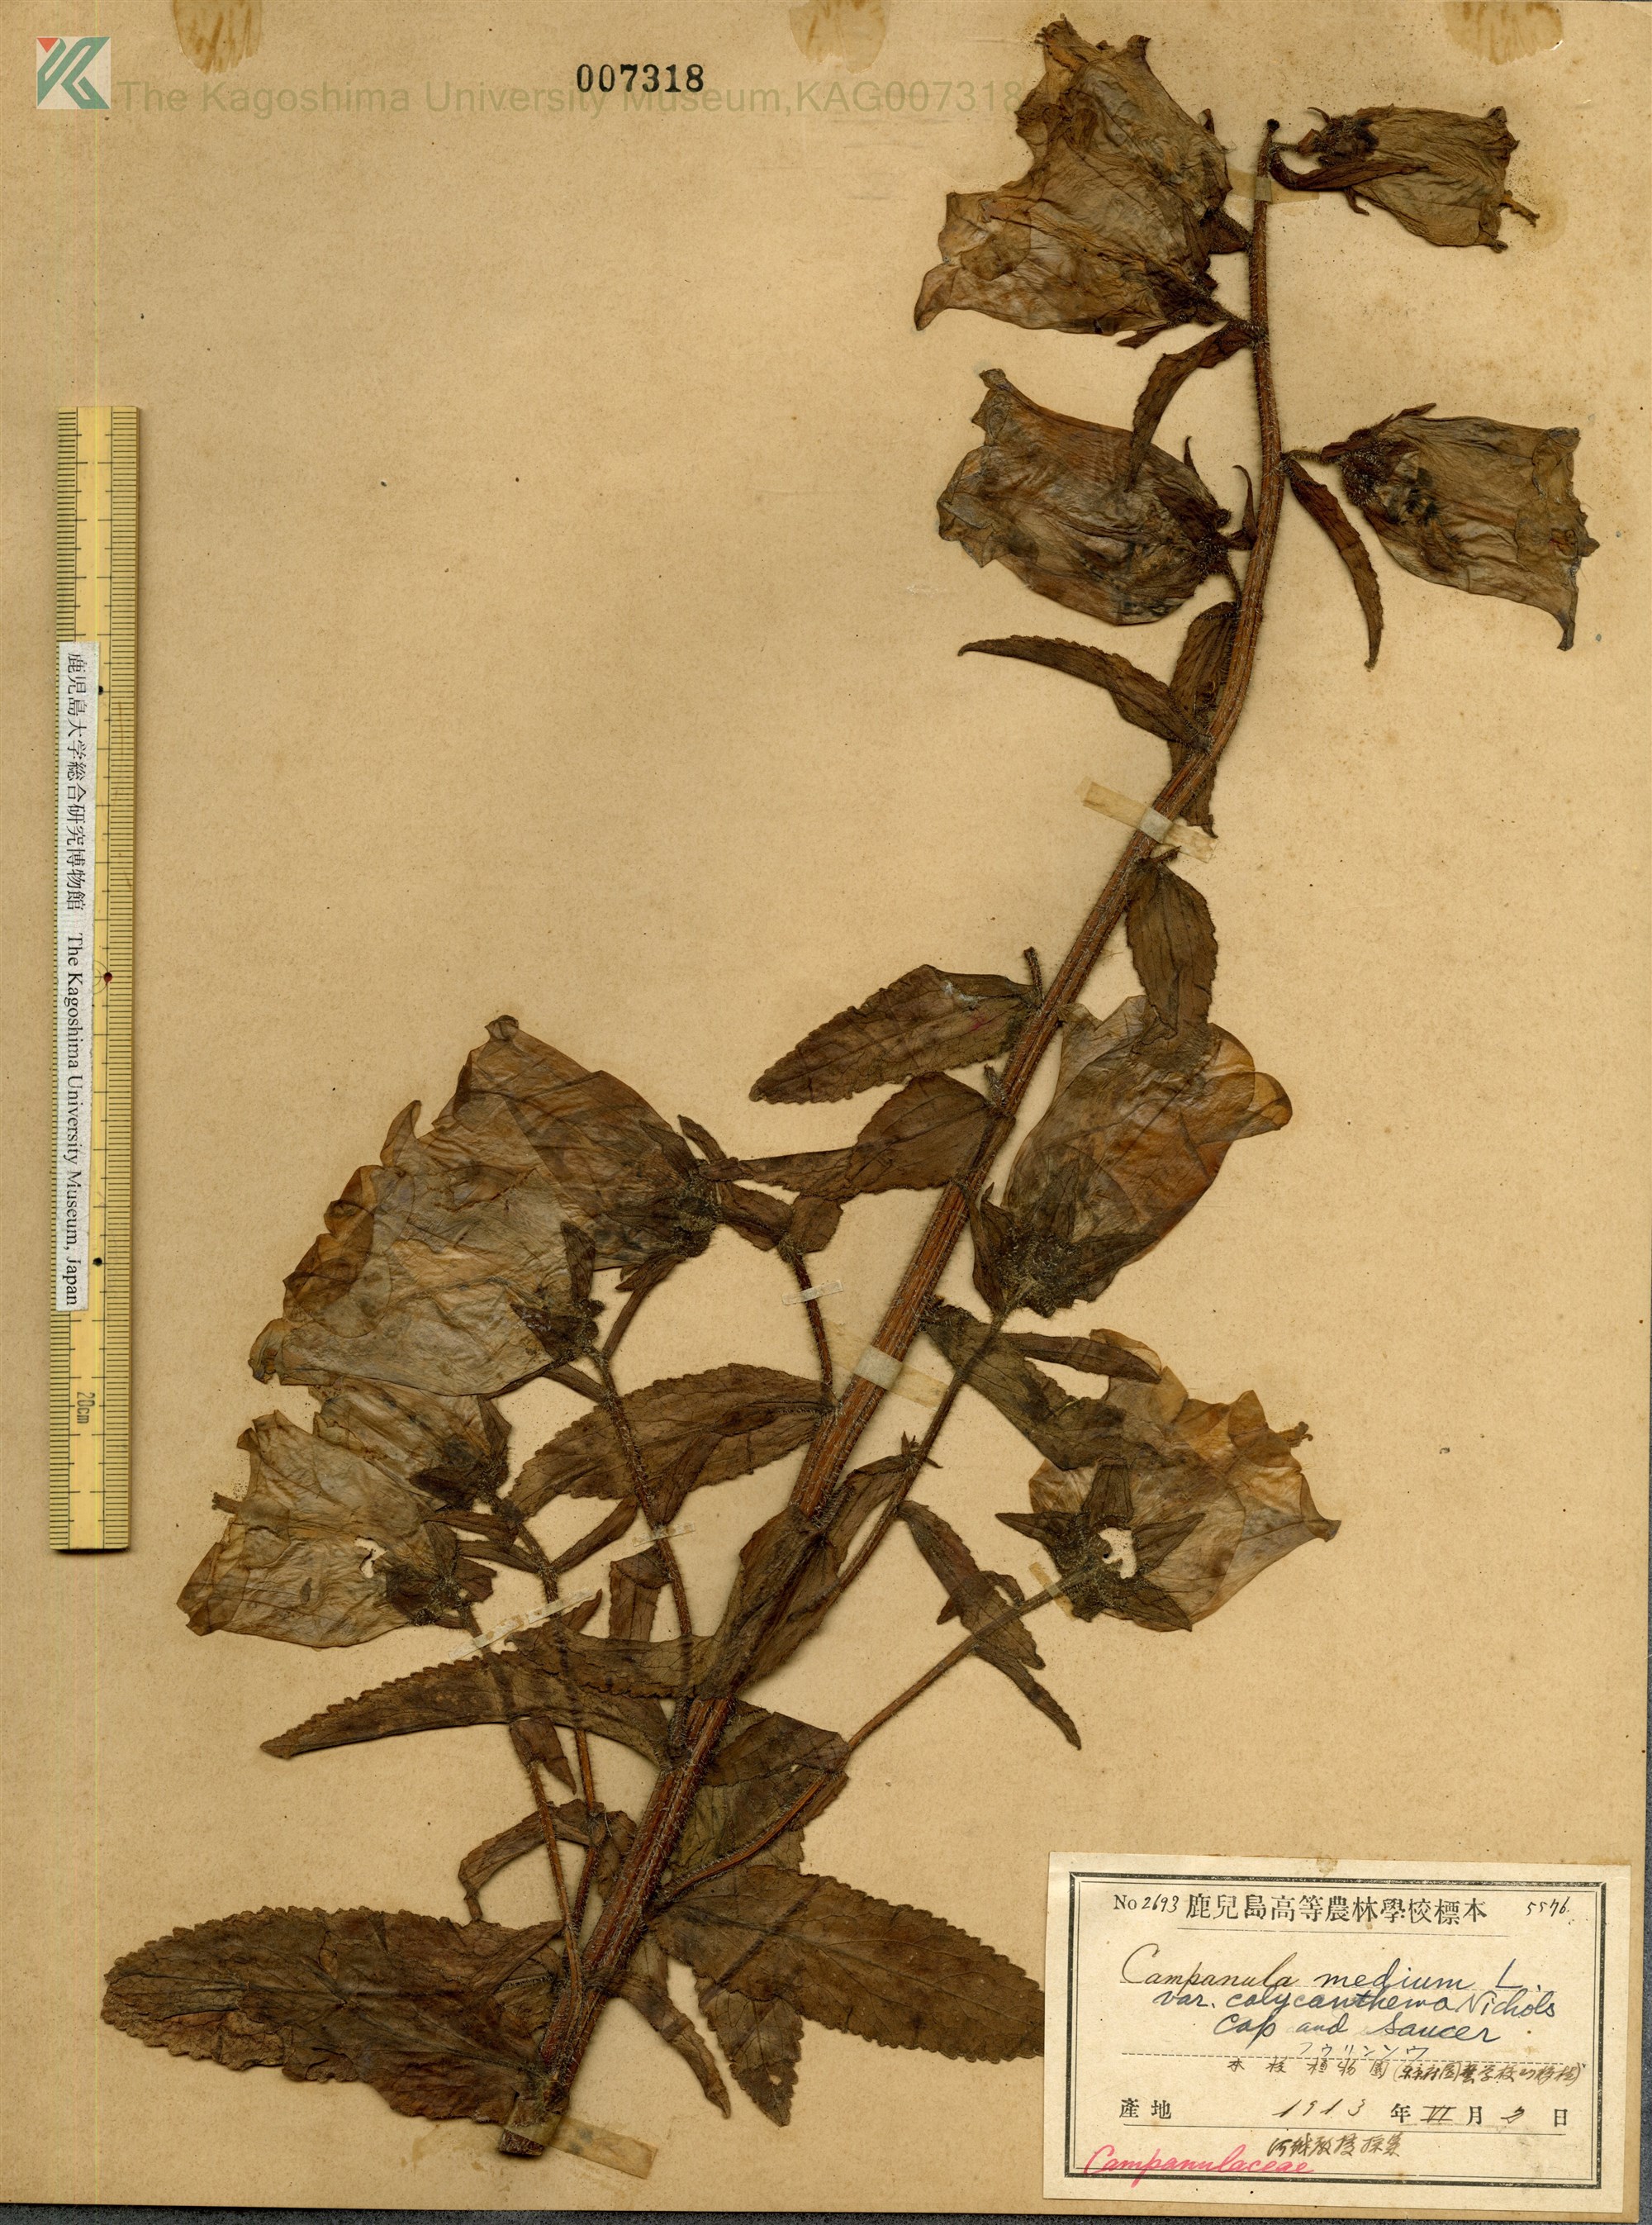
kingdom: Plantae
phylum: Tracheophyta
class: Magnoliopsida
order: Asterales
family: Campanulaceae
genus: Campanula
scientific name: Campanula medium
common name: Canterbury bells
